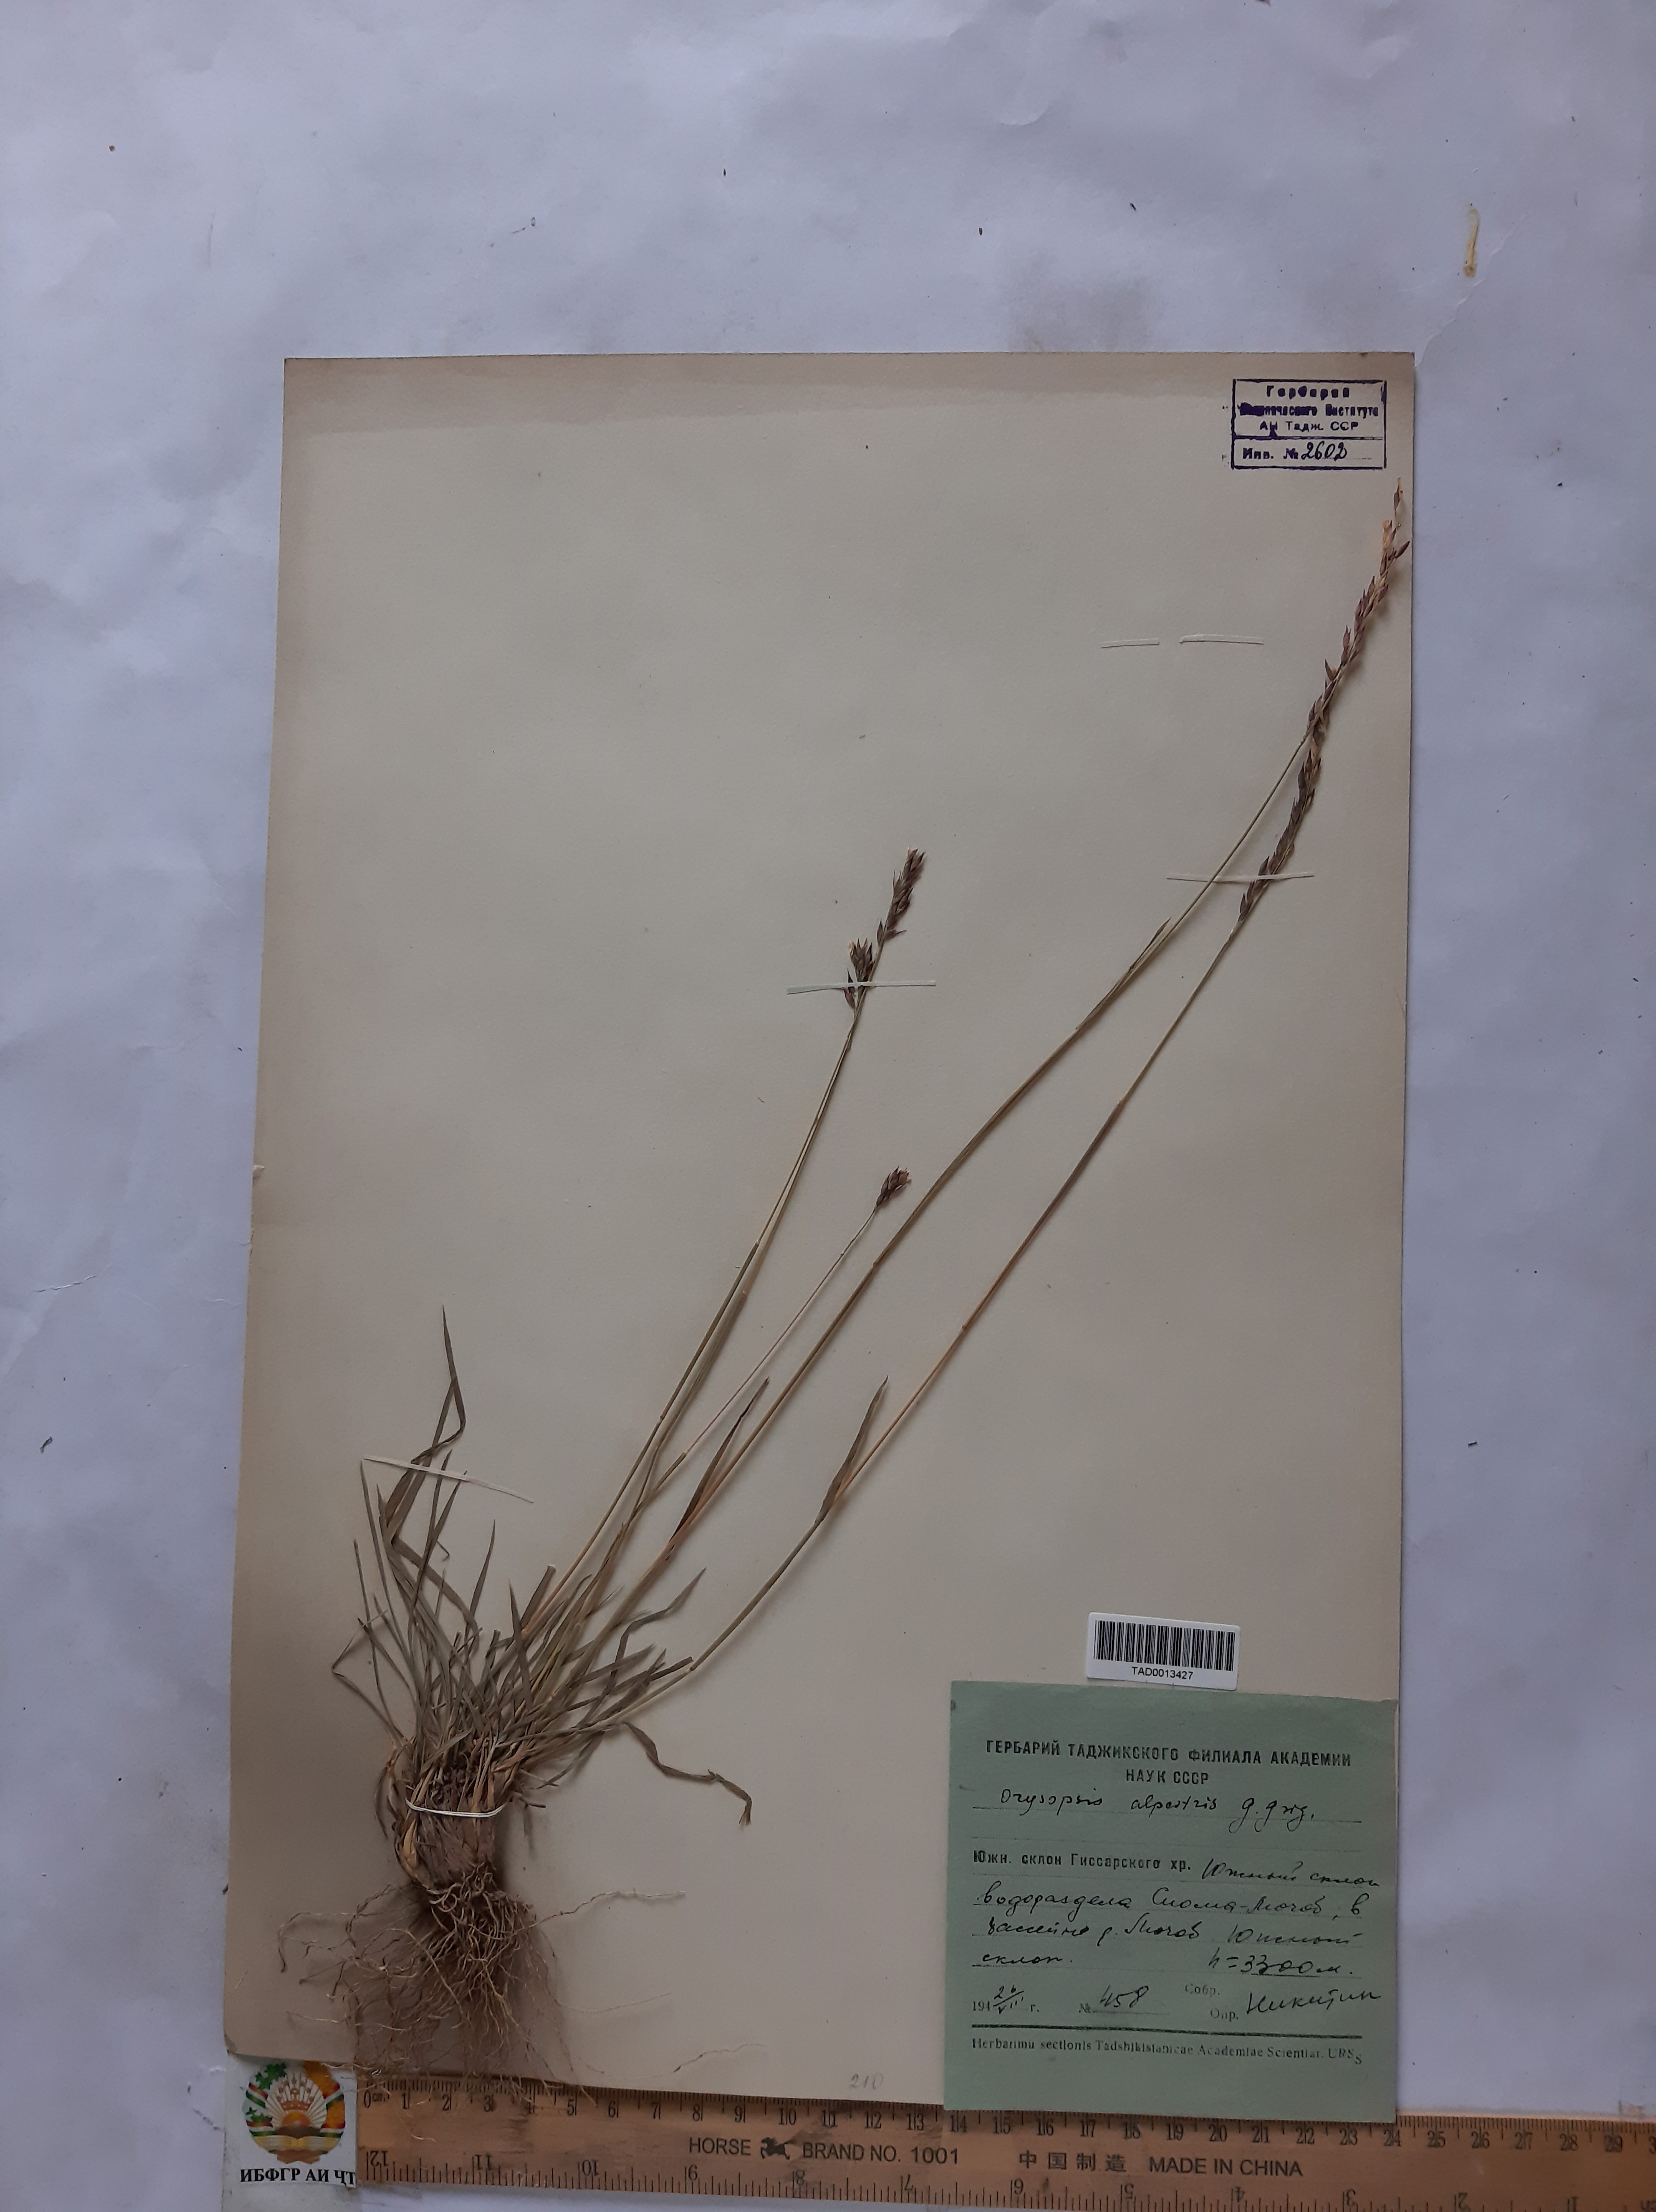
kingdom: Plantae
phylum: Tracheophyta
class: Liliopsida
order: Poales
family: Poaceae
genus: Piptatherum
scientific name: Piptatherum alpestre
